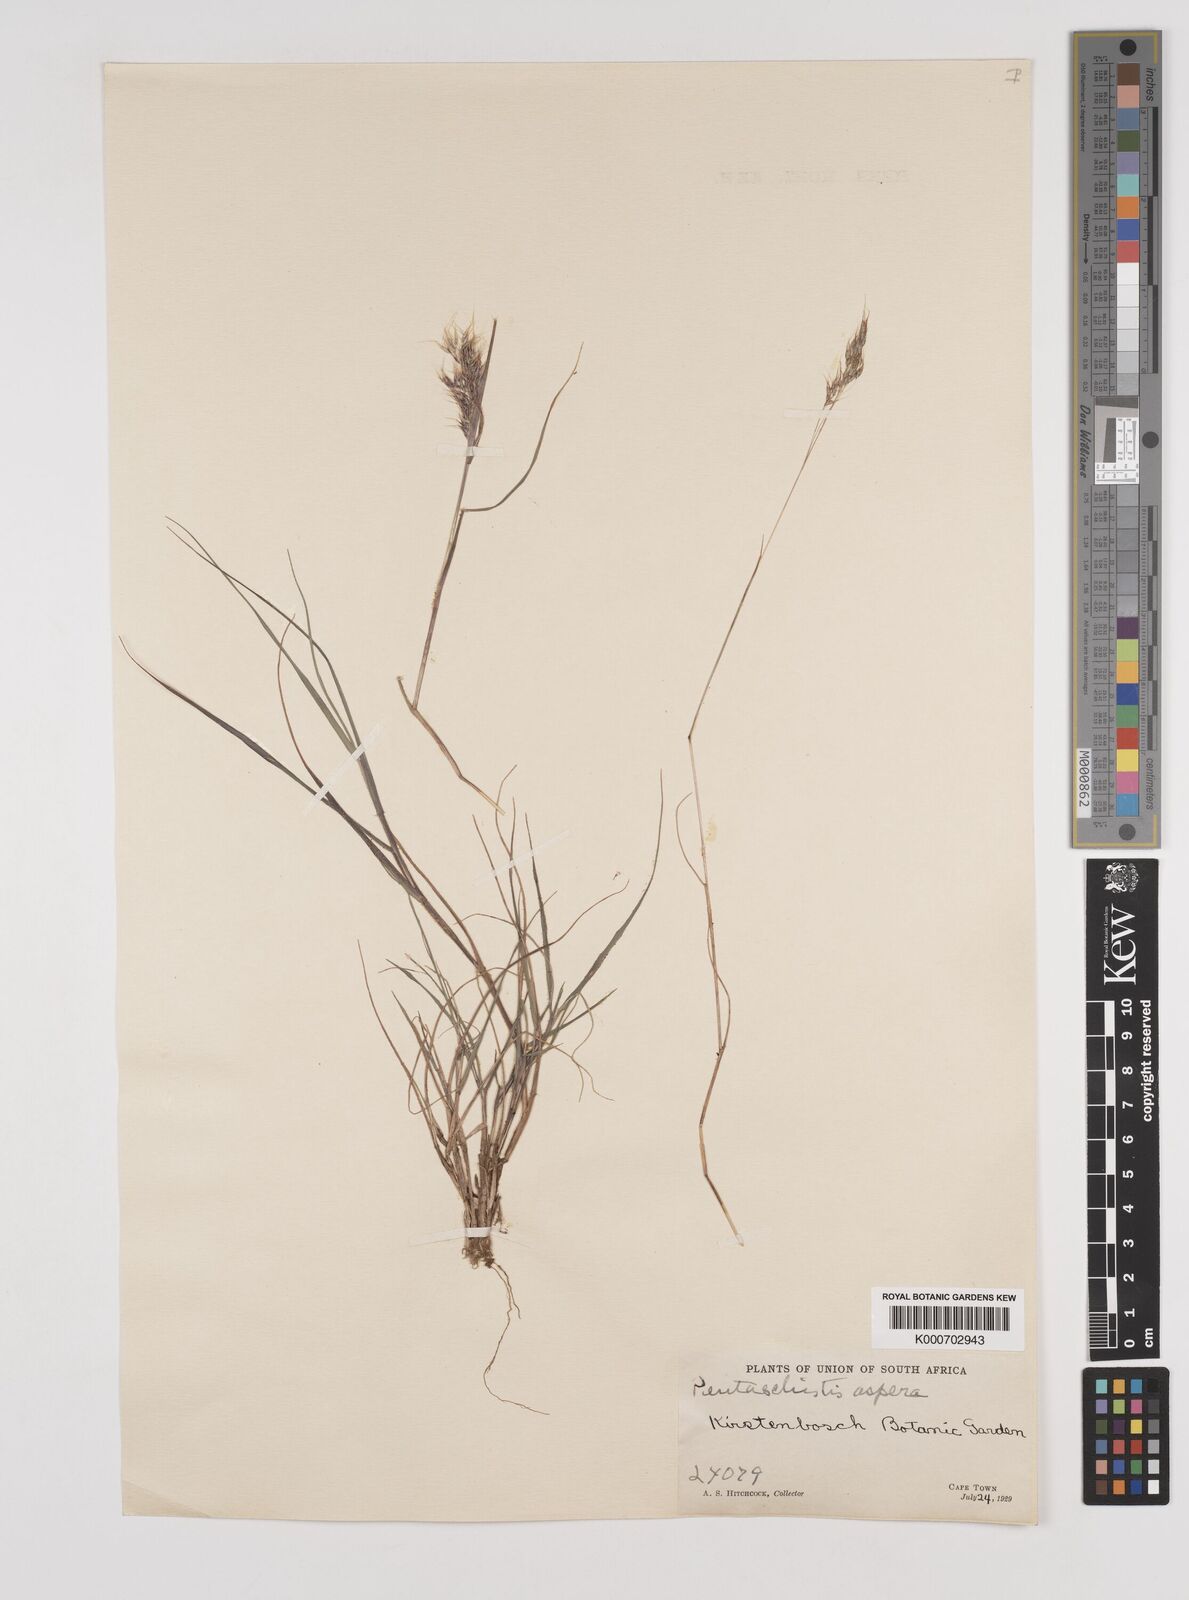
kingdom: Plantae
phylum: Tracheophyta
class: Liliopsida
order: Poales
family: Poaceae
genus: Pentameris
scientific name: Pentameris scabra
